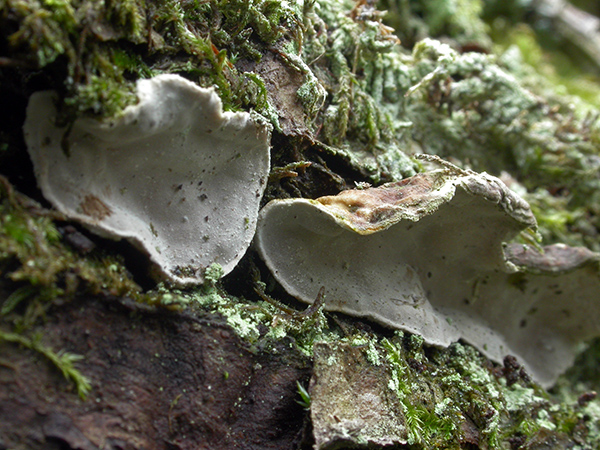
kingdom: Fungi
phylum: Basidiomycota
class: Agaricomycetes
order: Russulales
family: Stereaceae
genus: Aleurodiscus
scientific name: Aleurodiscus disciformis
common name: hvidlig skiveskorpe
